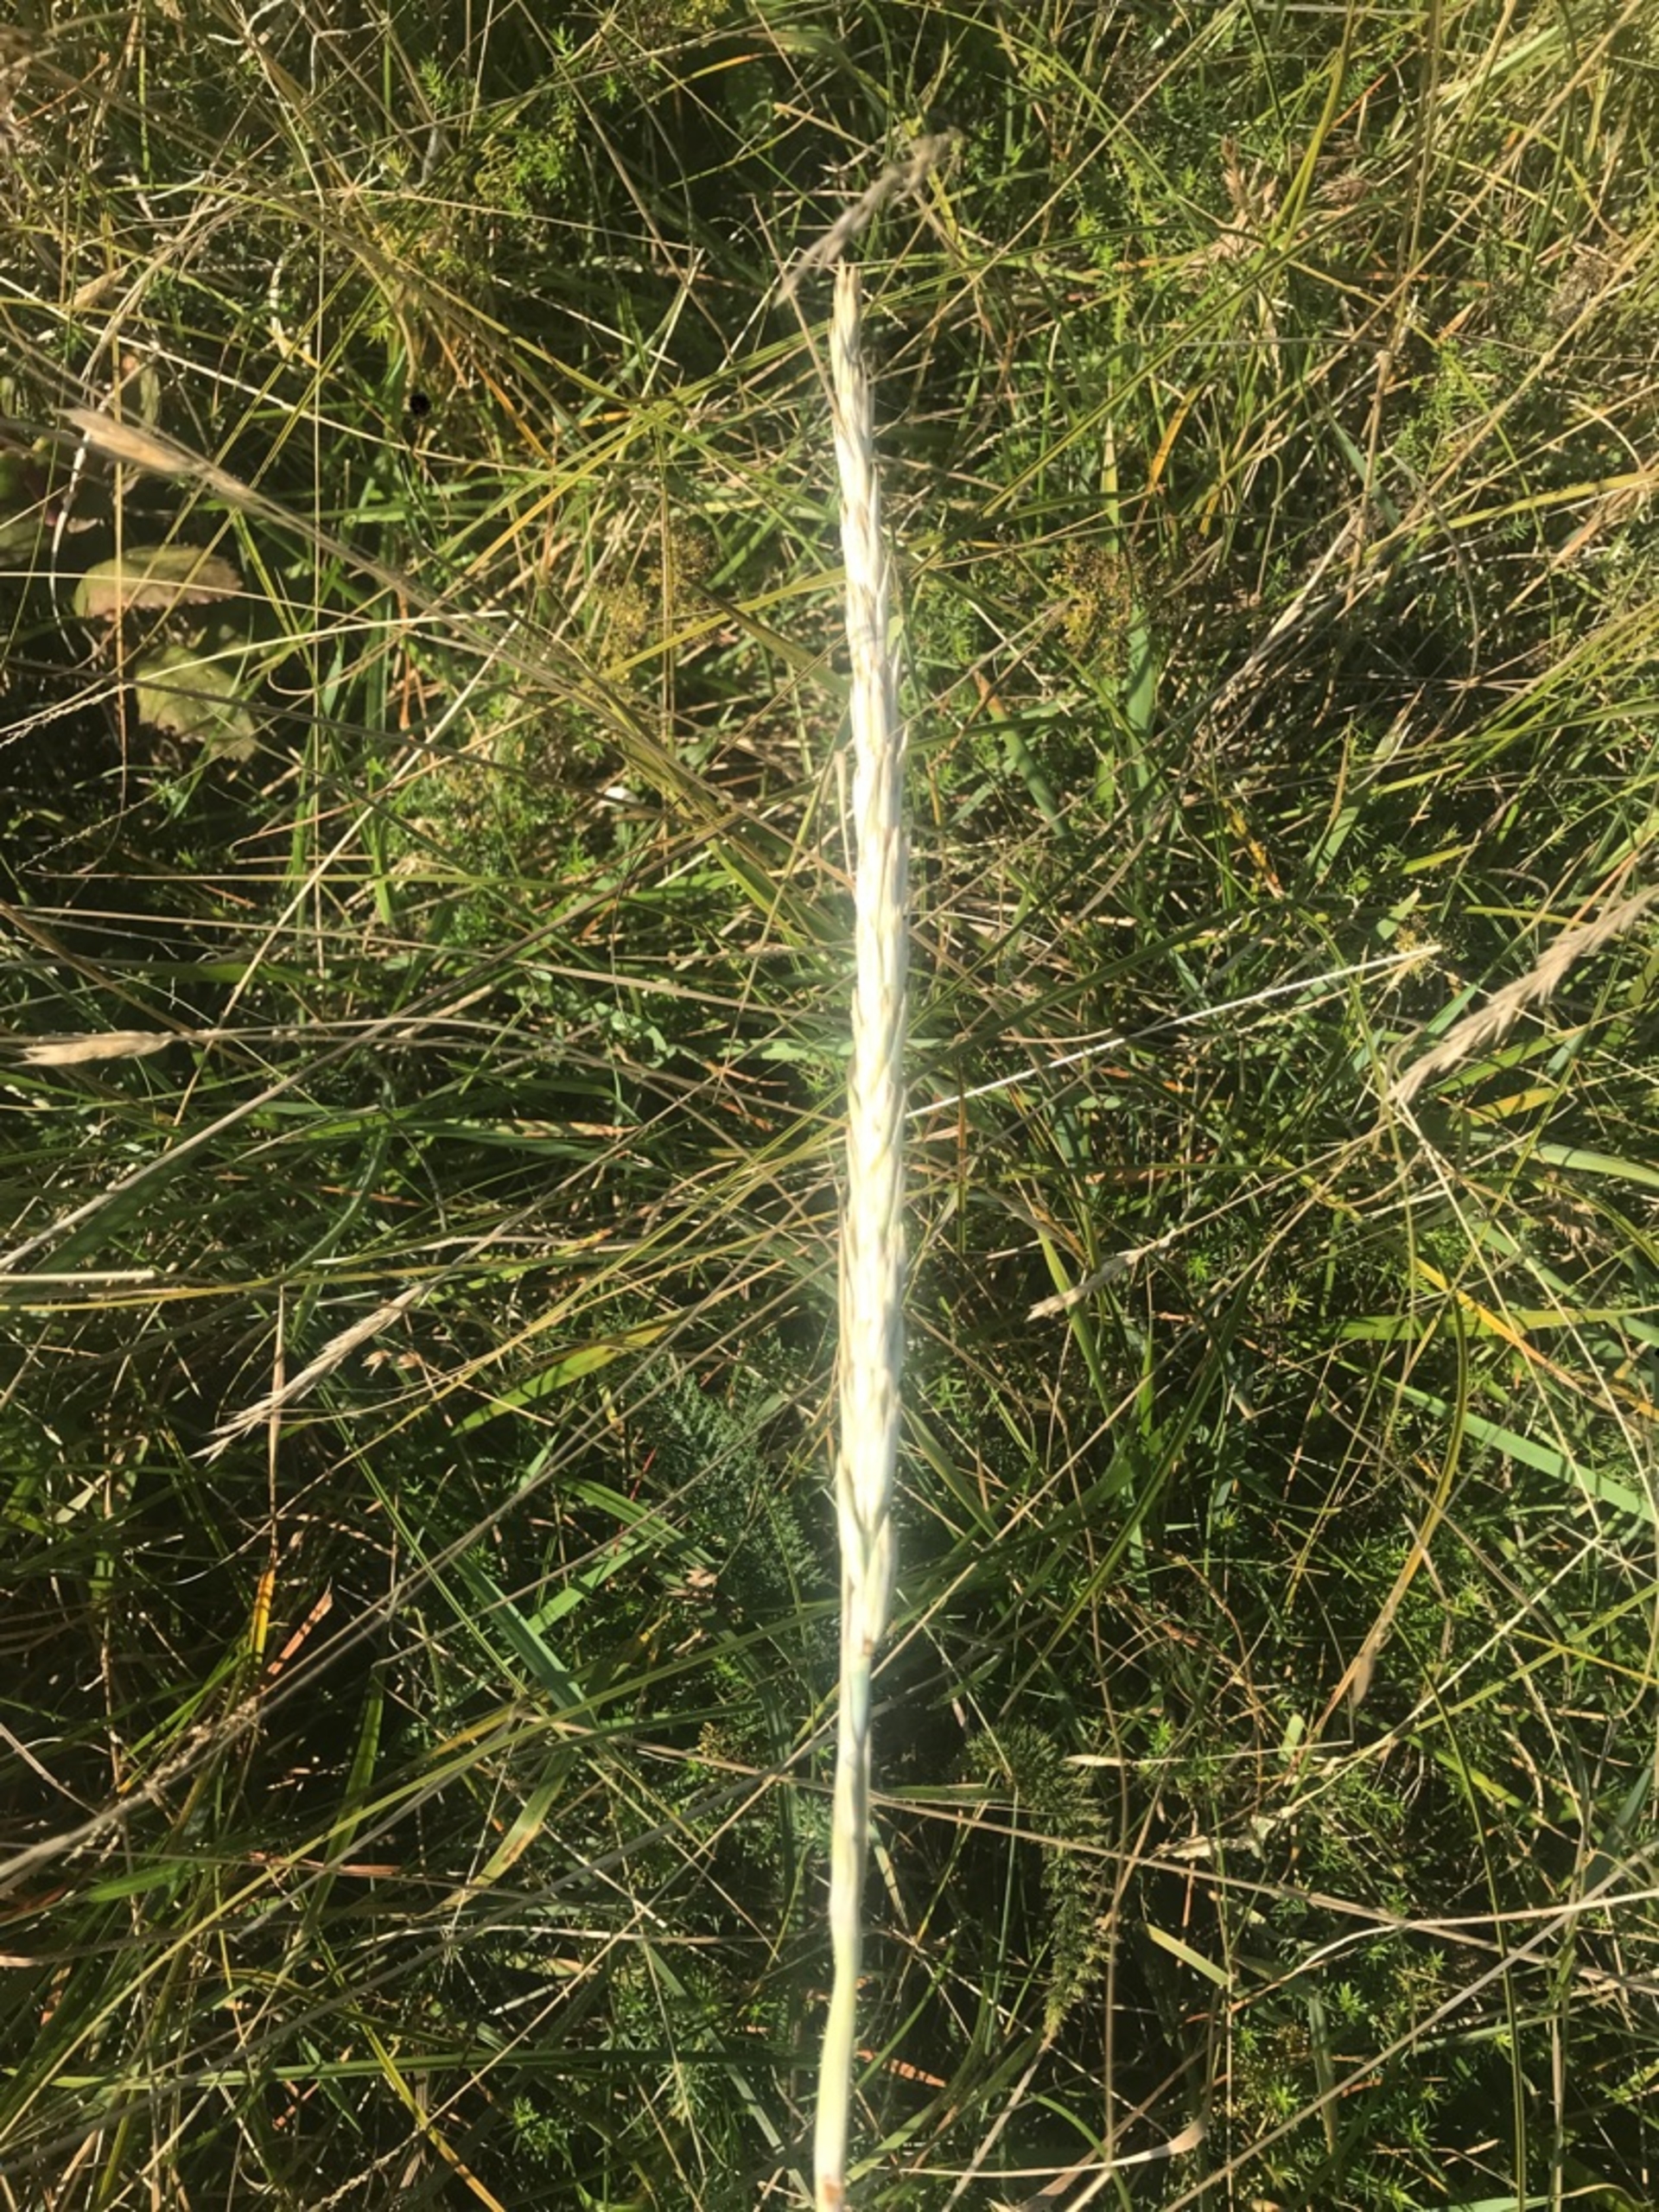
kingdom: Plantae
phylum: Tracheophyta
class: Liliopsida
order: Poales
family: Poaceae
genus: Leymus
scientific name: Leymus arenarius
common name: Marehalm
